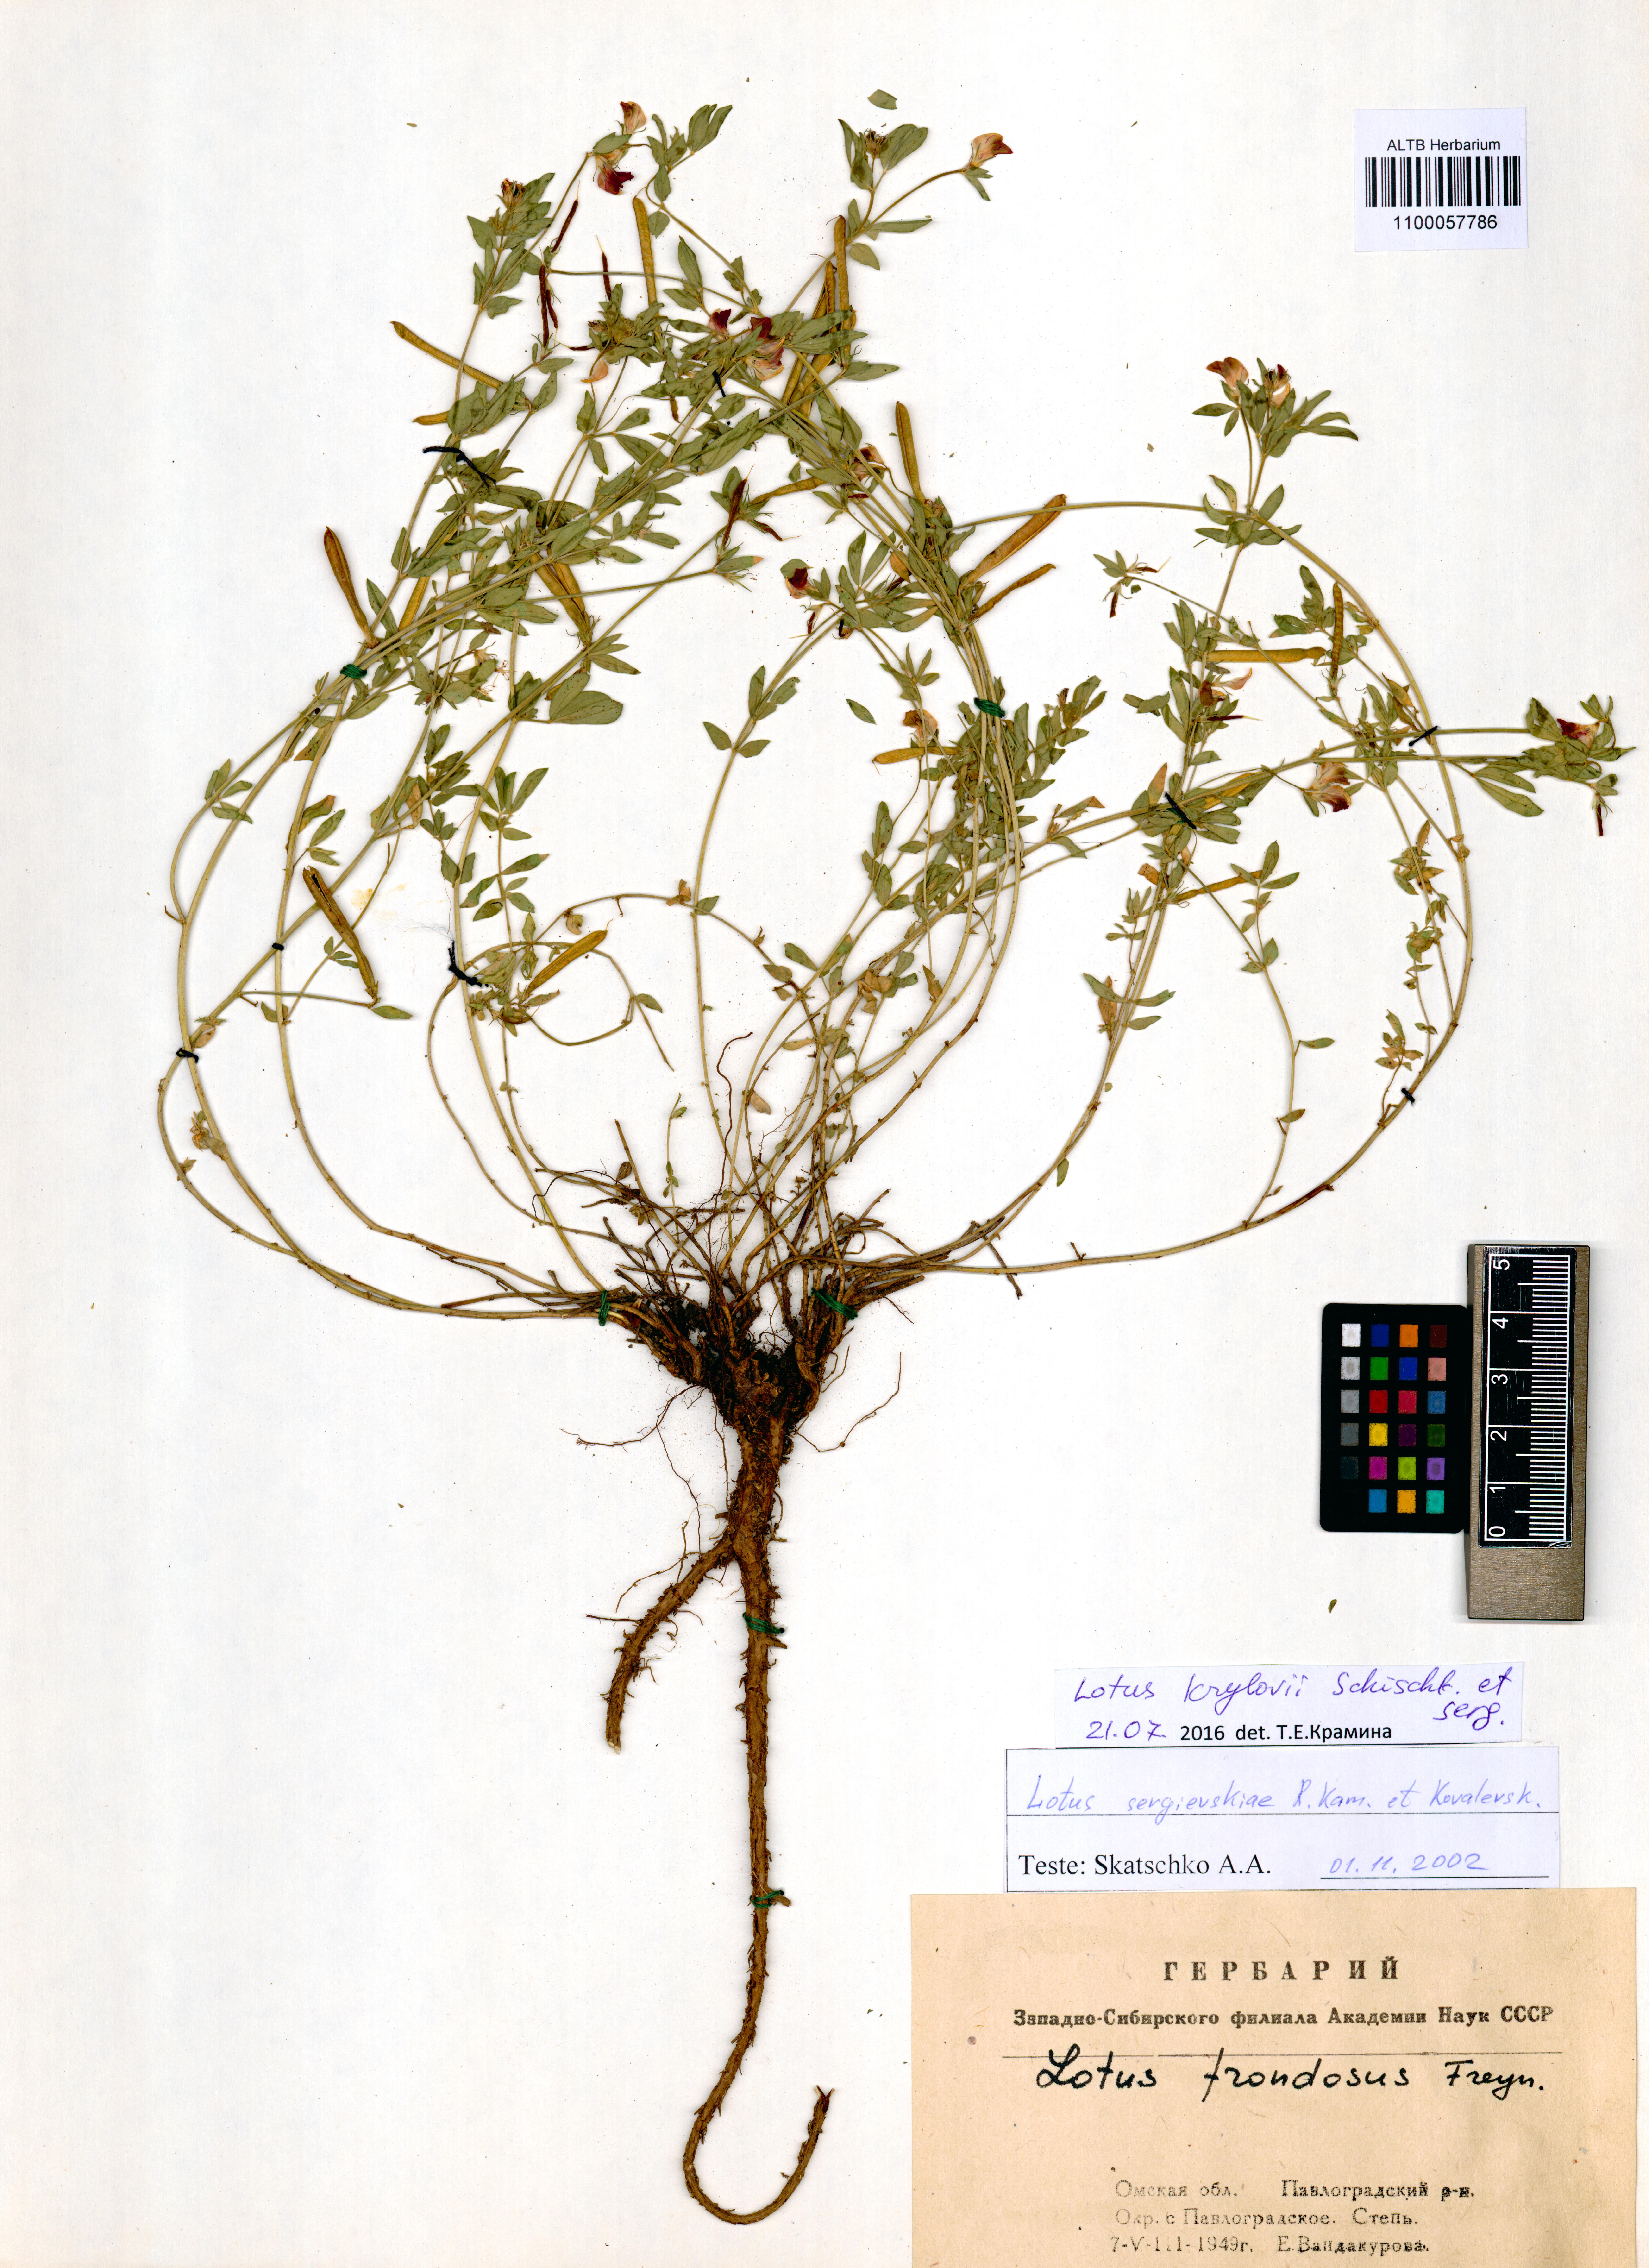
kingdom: Plantae
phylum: Tracheophyta
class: Magnoliopsida
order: Fabales
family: Fabaceae
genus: Lotus
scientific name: Lotus krylovii
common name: Krylov's bird's-foot trefoil
